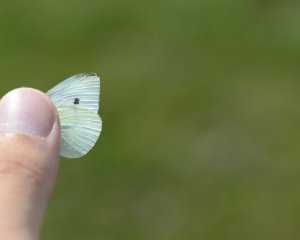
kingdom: Animalia
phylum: Arthropoda
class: Insecta
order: Lepidoptera
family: Pieridae
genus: Pieris
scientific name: Pieris rapae
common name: Cabbage White
